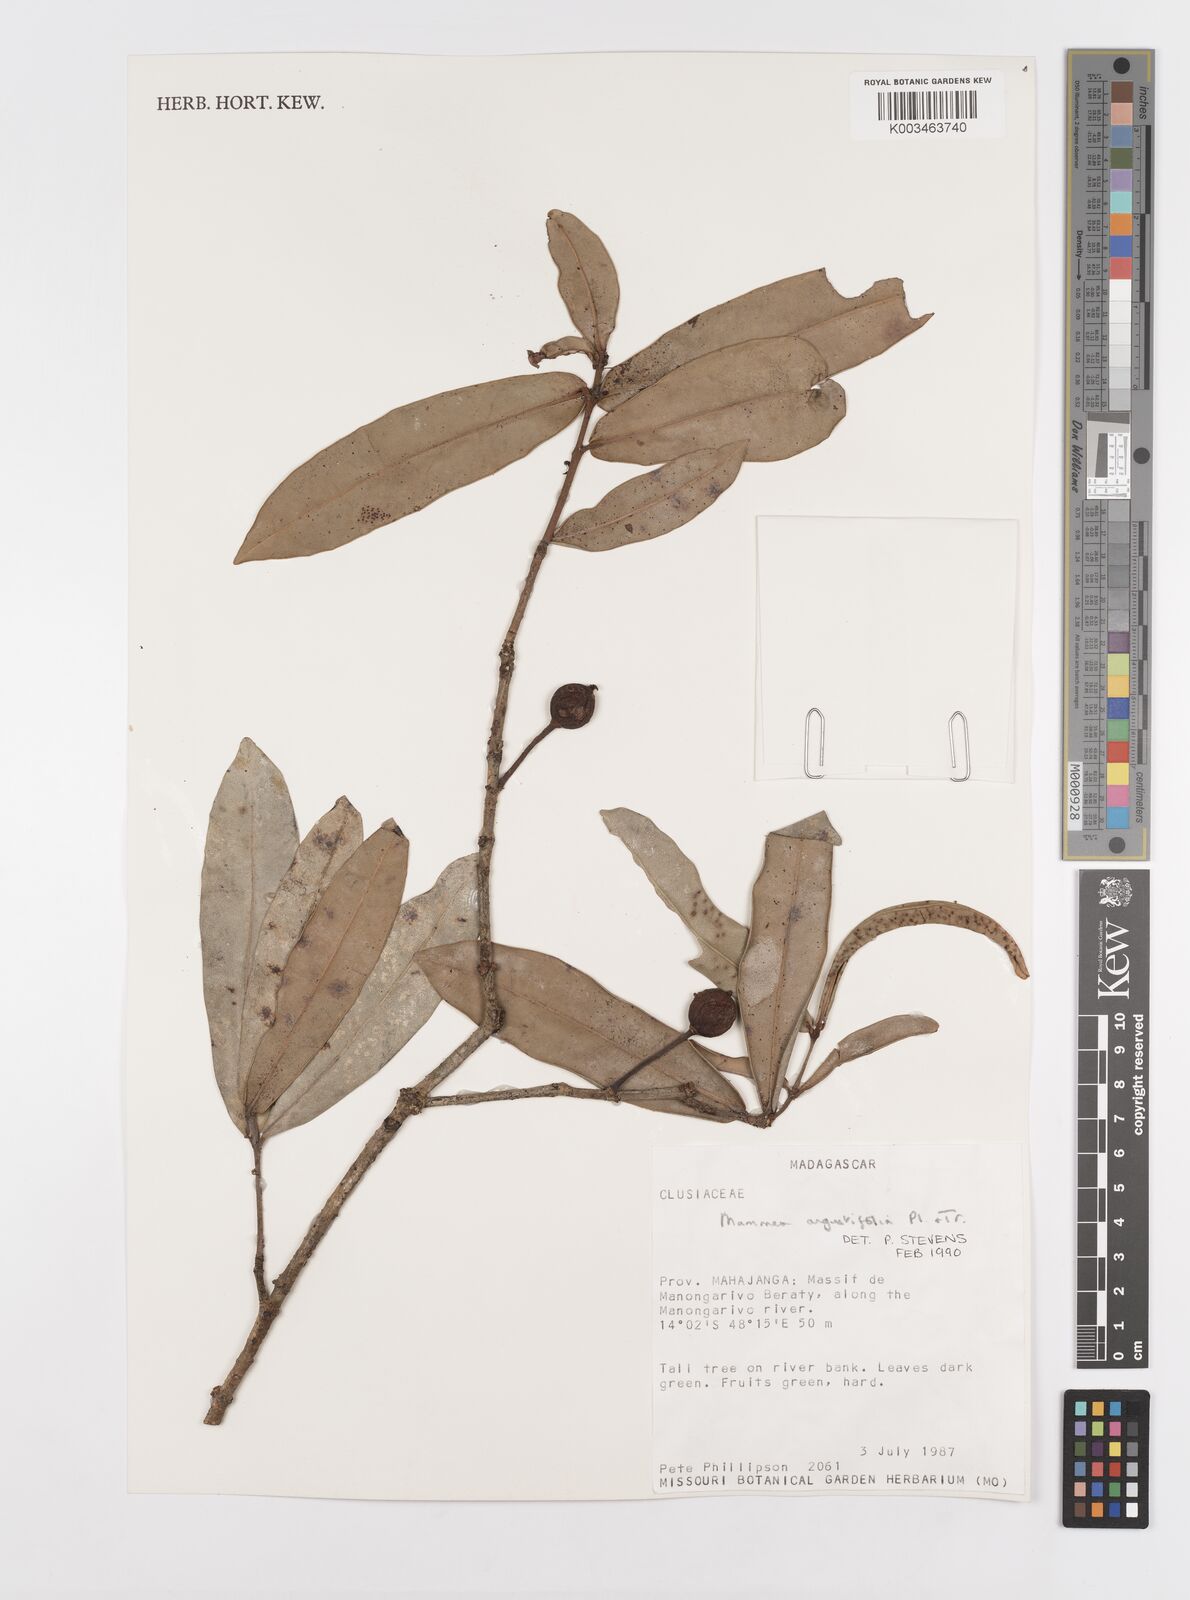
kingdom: Plantae
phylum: Tracheophyta
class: Magnoliopsida
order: Malpighiales
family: Calophyllaceae
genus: Mammea
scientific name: Mammea angustifolia
